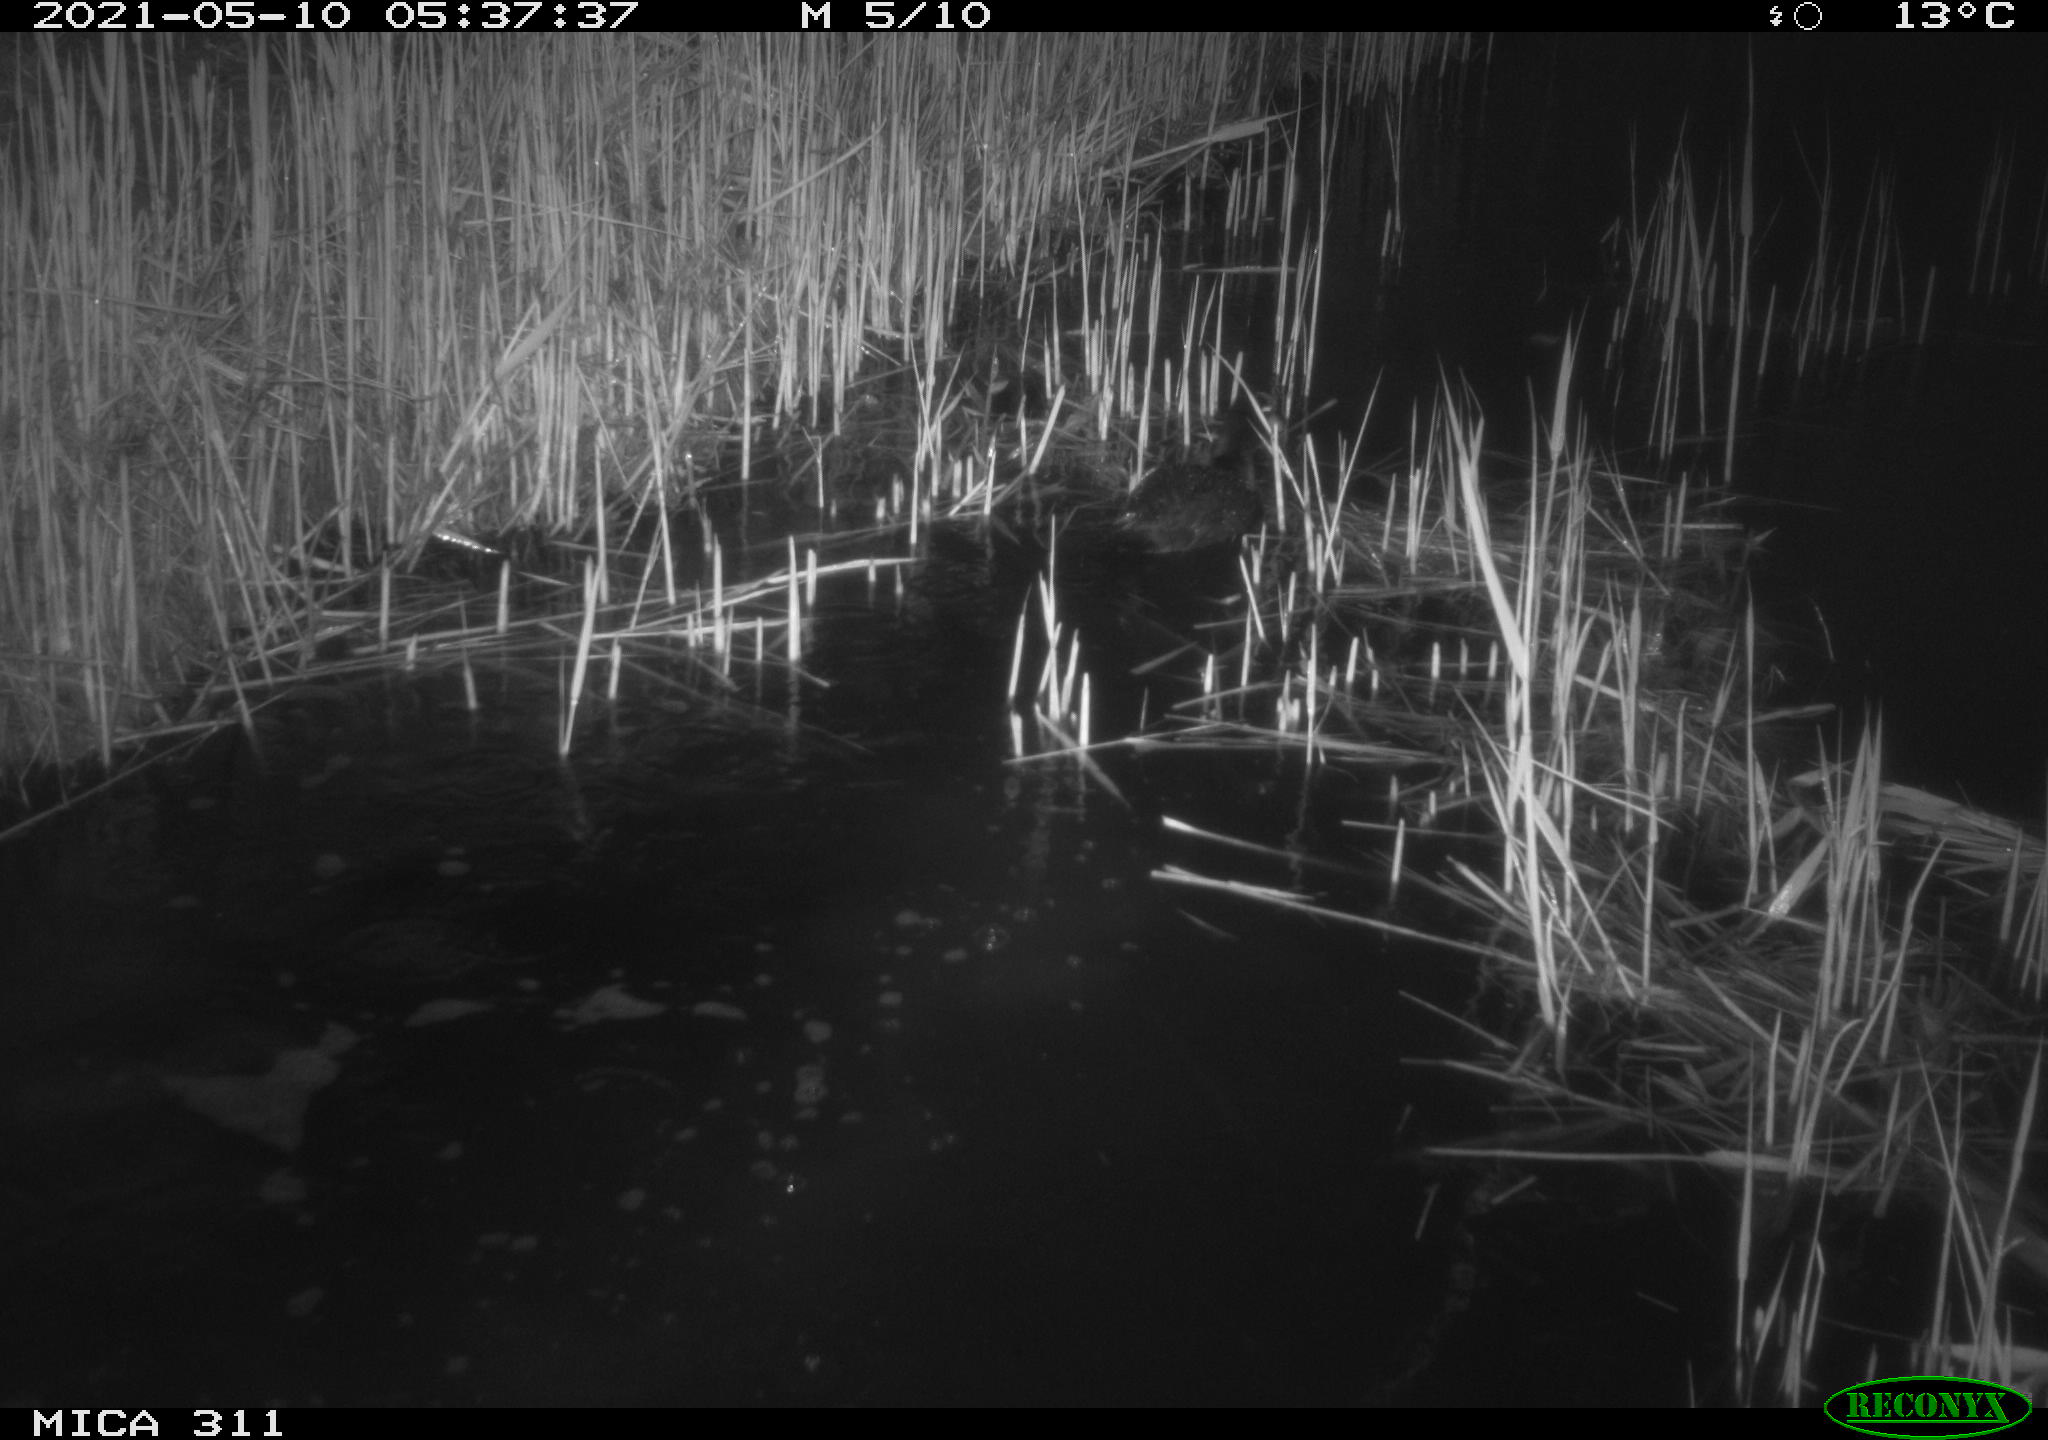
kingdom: Animalia
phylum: Chordata
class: Aves
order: Gruiformes
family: Rallidae
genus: Fulica
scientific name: Fulica atra
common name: Eurasian coot
